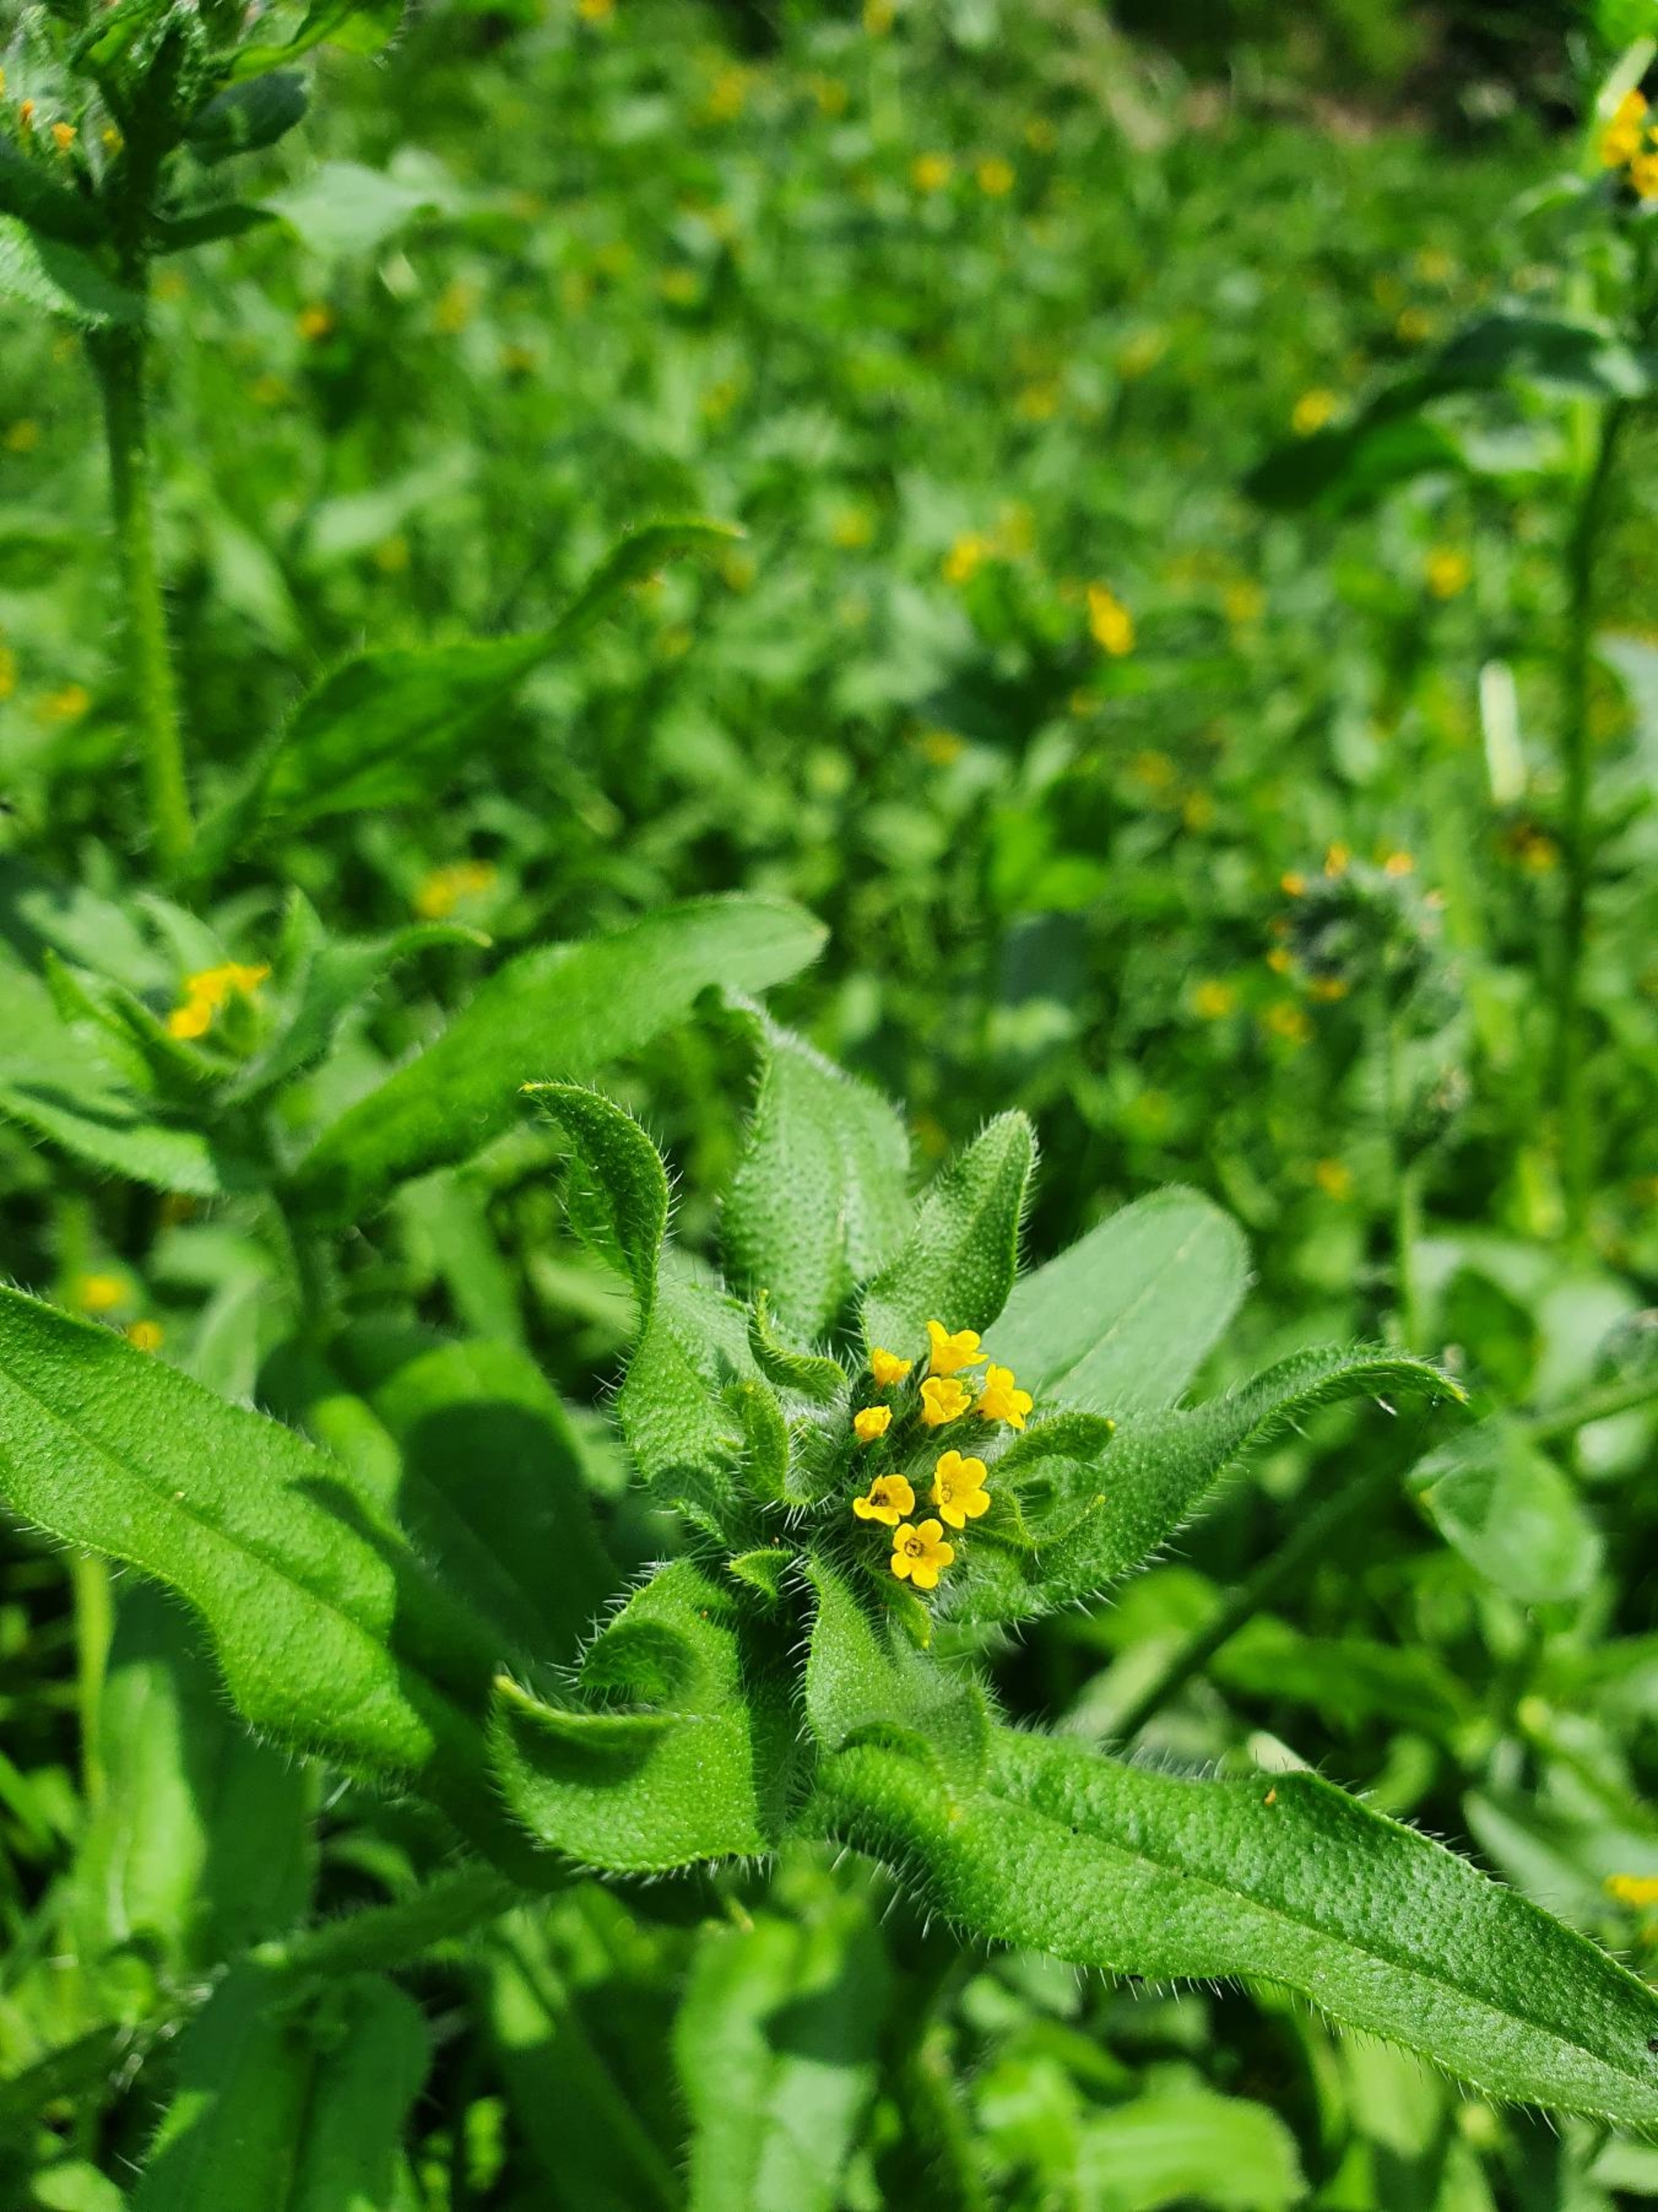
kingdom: Plantae
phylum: Tracheophyta
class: Magnoliopsida
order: Boraginales
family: Boraginaceae
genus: Amsinckia
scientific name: Amsinckia menziesii
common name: Småblomstret gulurt
